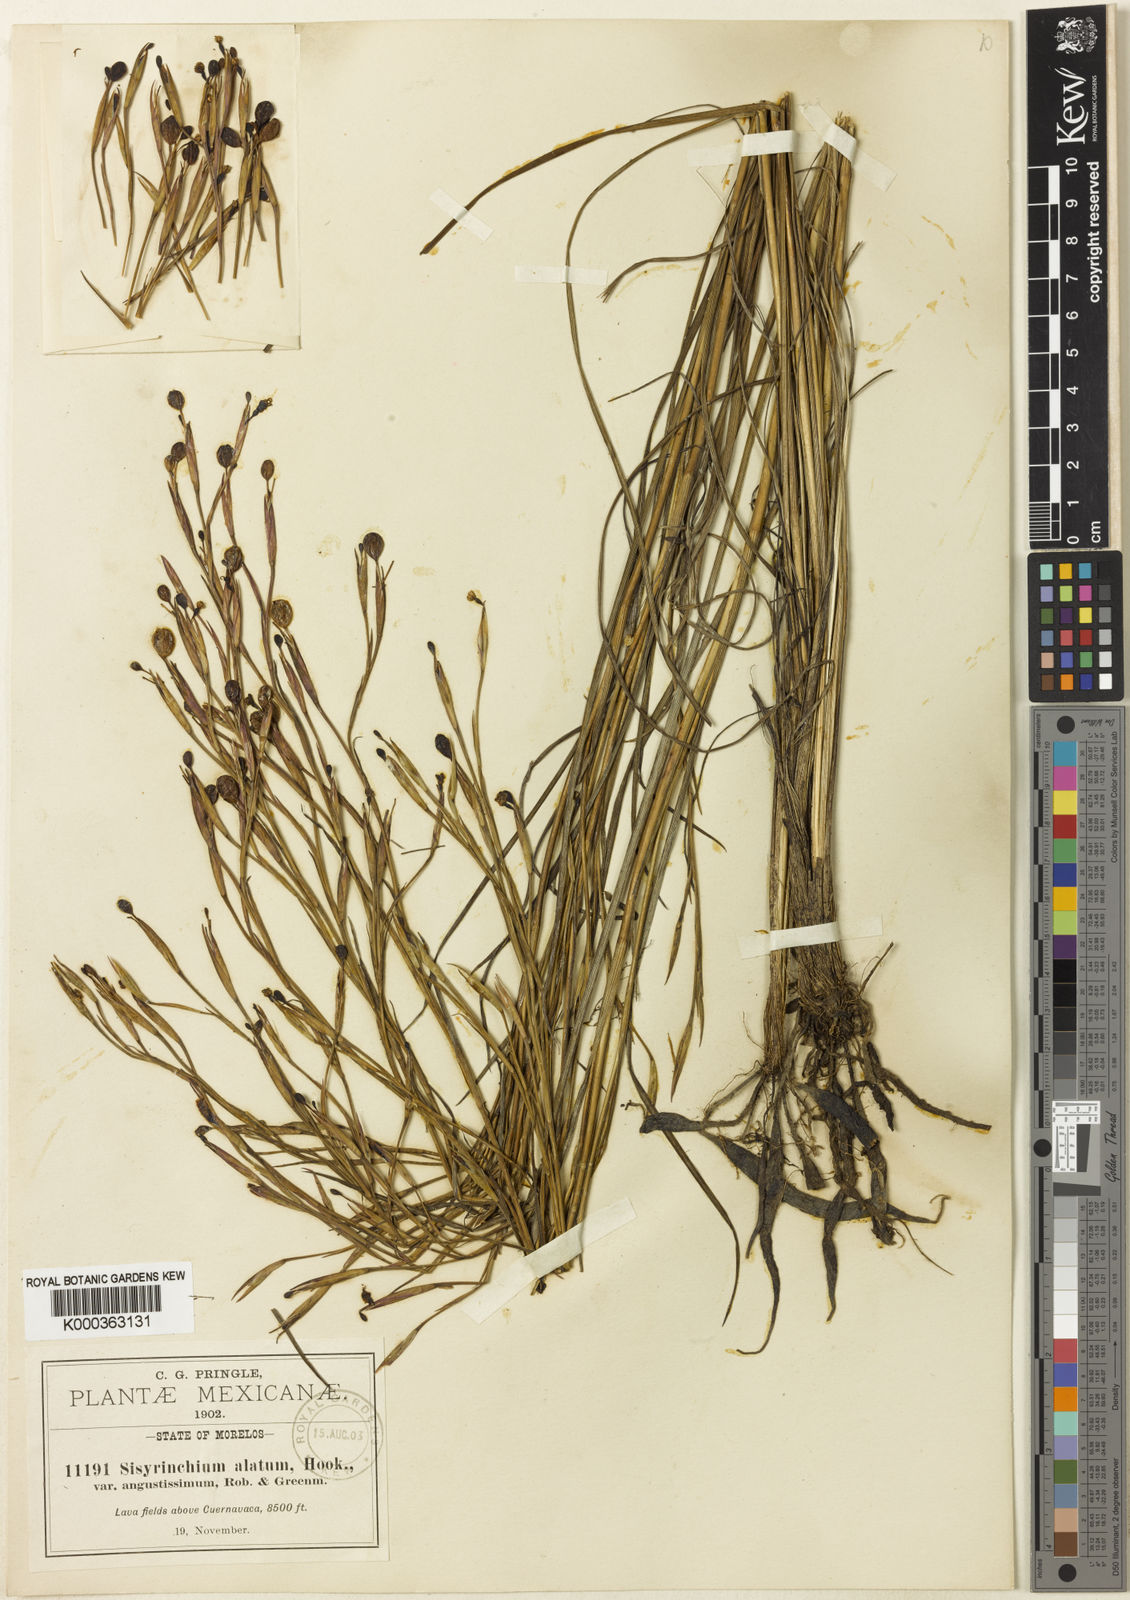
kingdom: Plantae
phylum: Tracheophyta
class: Liliopsida
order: Asparagales
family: Iridaceae
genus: Sisyrinchium
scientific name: Sisyrinchium vaginatum
